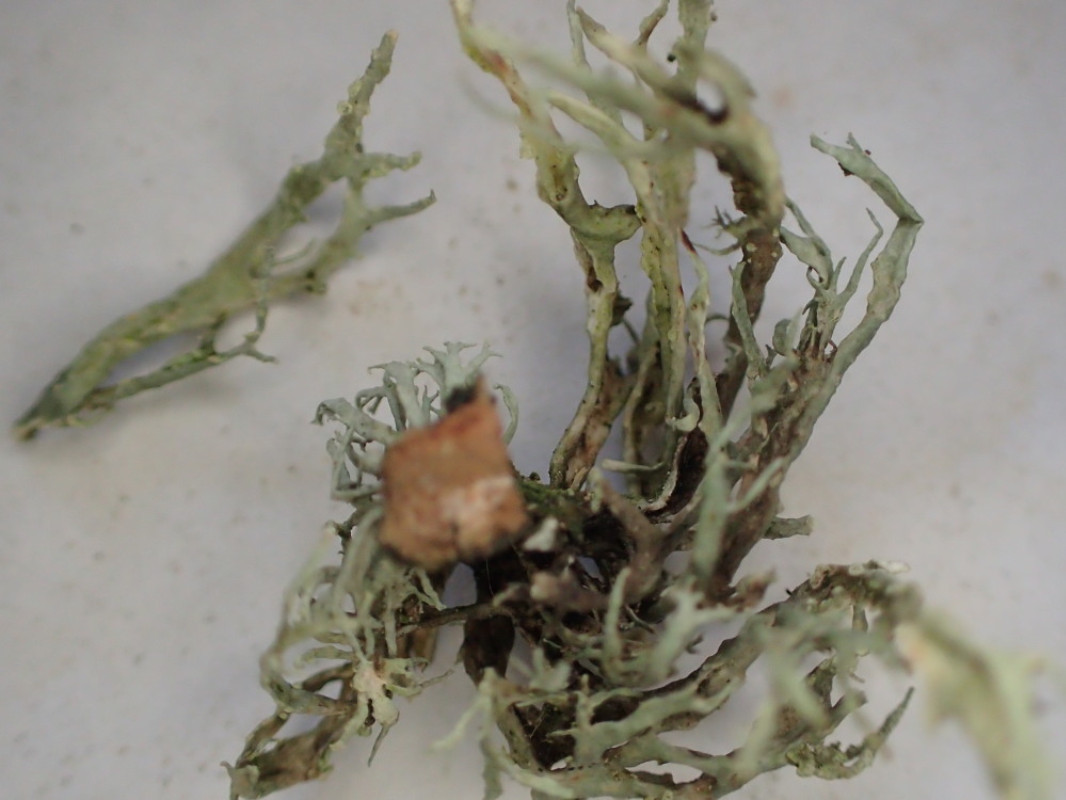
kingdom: Fungi
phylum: Ascomycota
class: Lecanoromycetes
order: Lecanorales
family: Ramalinaceae
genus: Ramalina
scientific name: Ramalina farinacea
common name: melet grenlav
